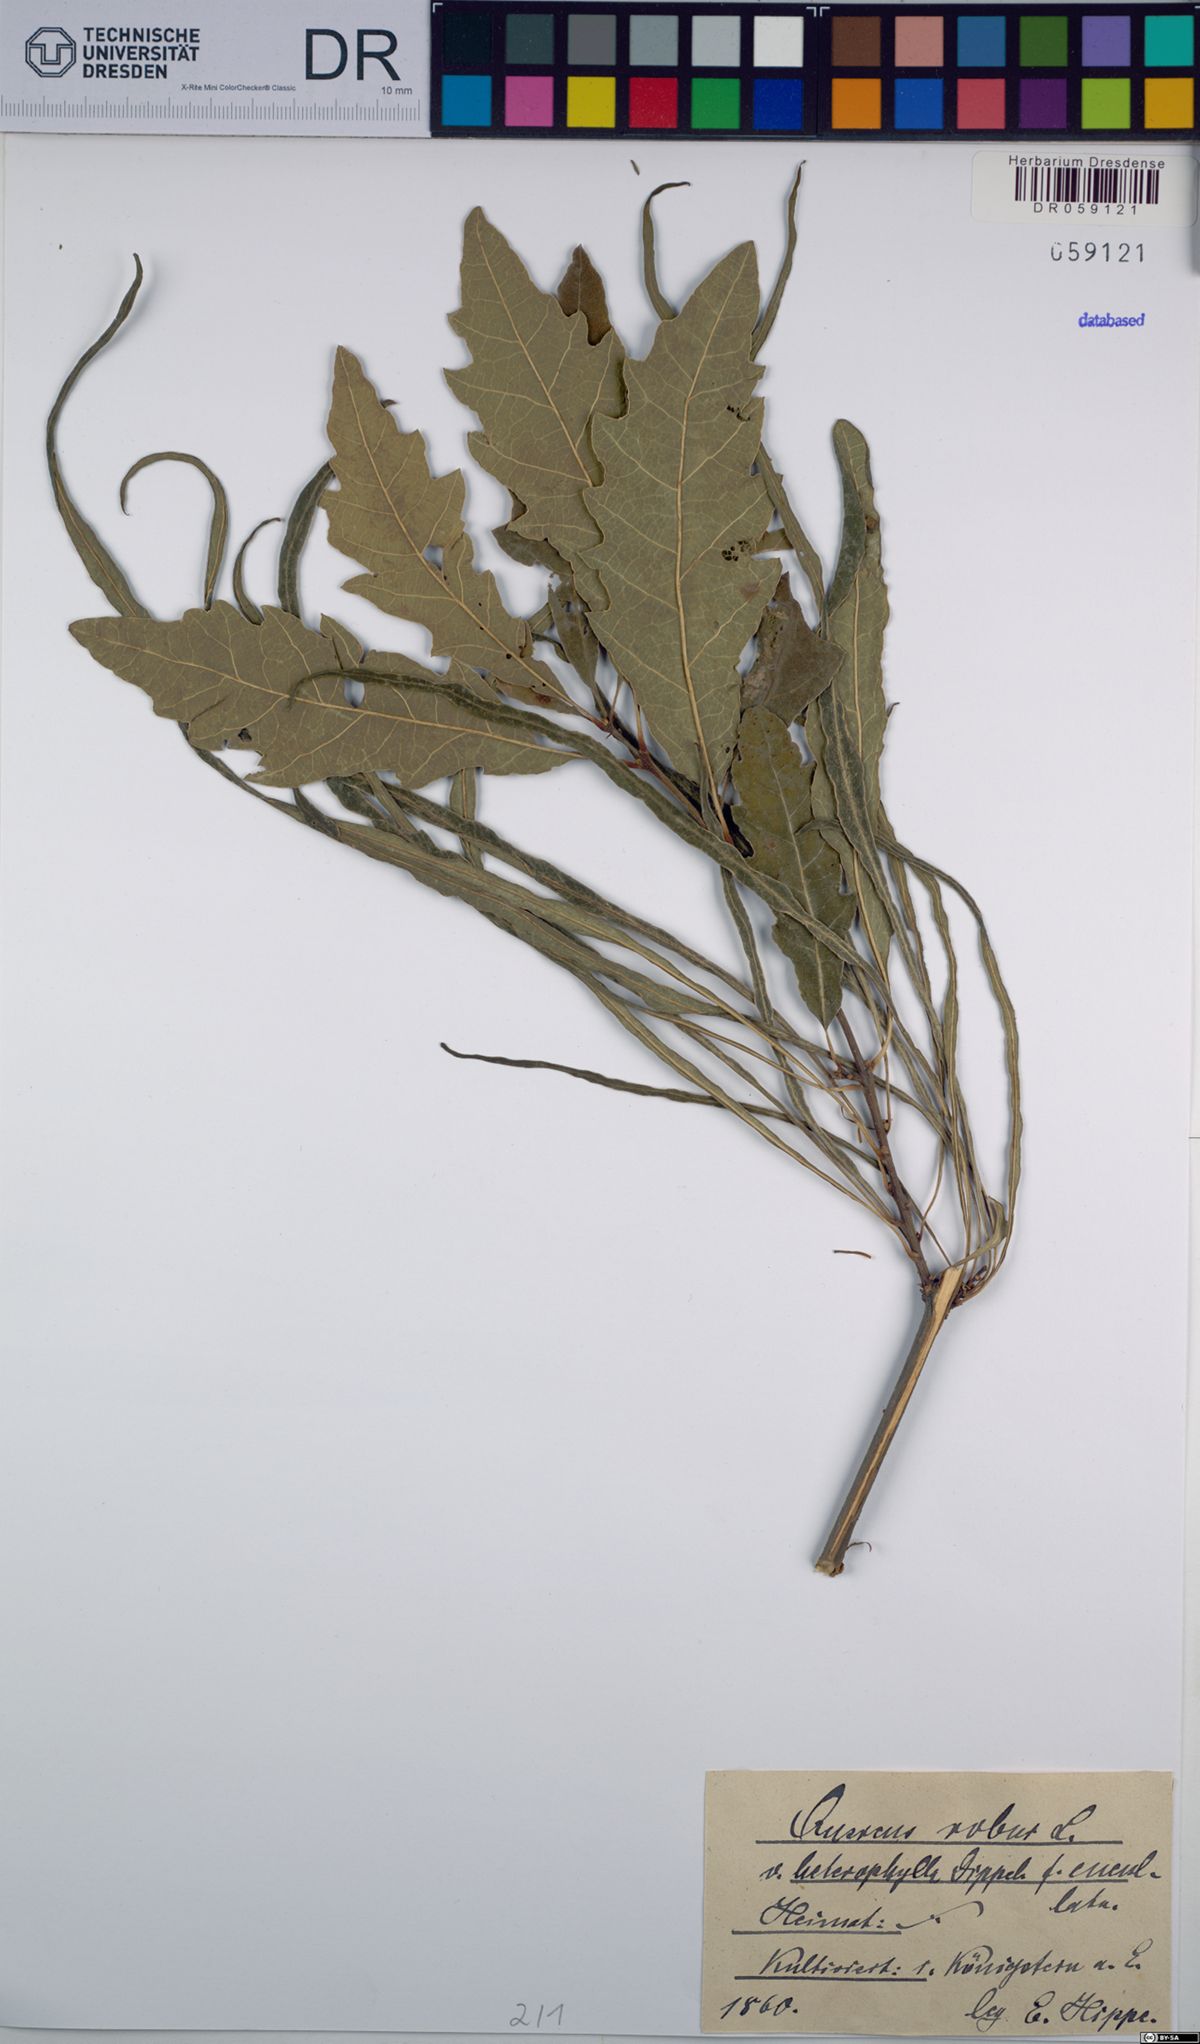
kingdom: Plantae
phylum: Tracheophyta
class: Magnoliopsida
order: Fagales
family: Fagaceae
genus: Quercus
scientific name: Quercus robur
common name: Pedunculate oak
